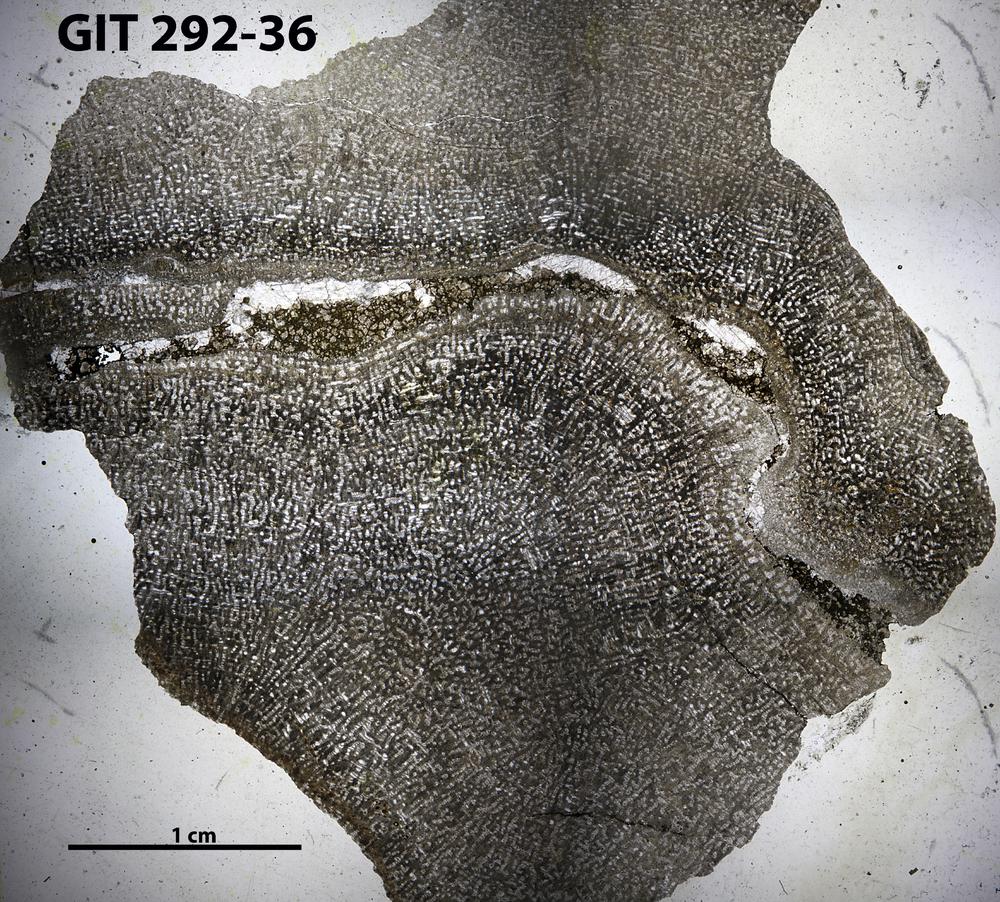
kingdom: Animalia
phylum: Porifera
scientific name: Porifera
